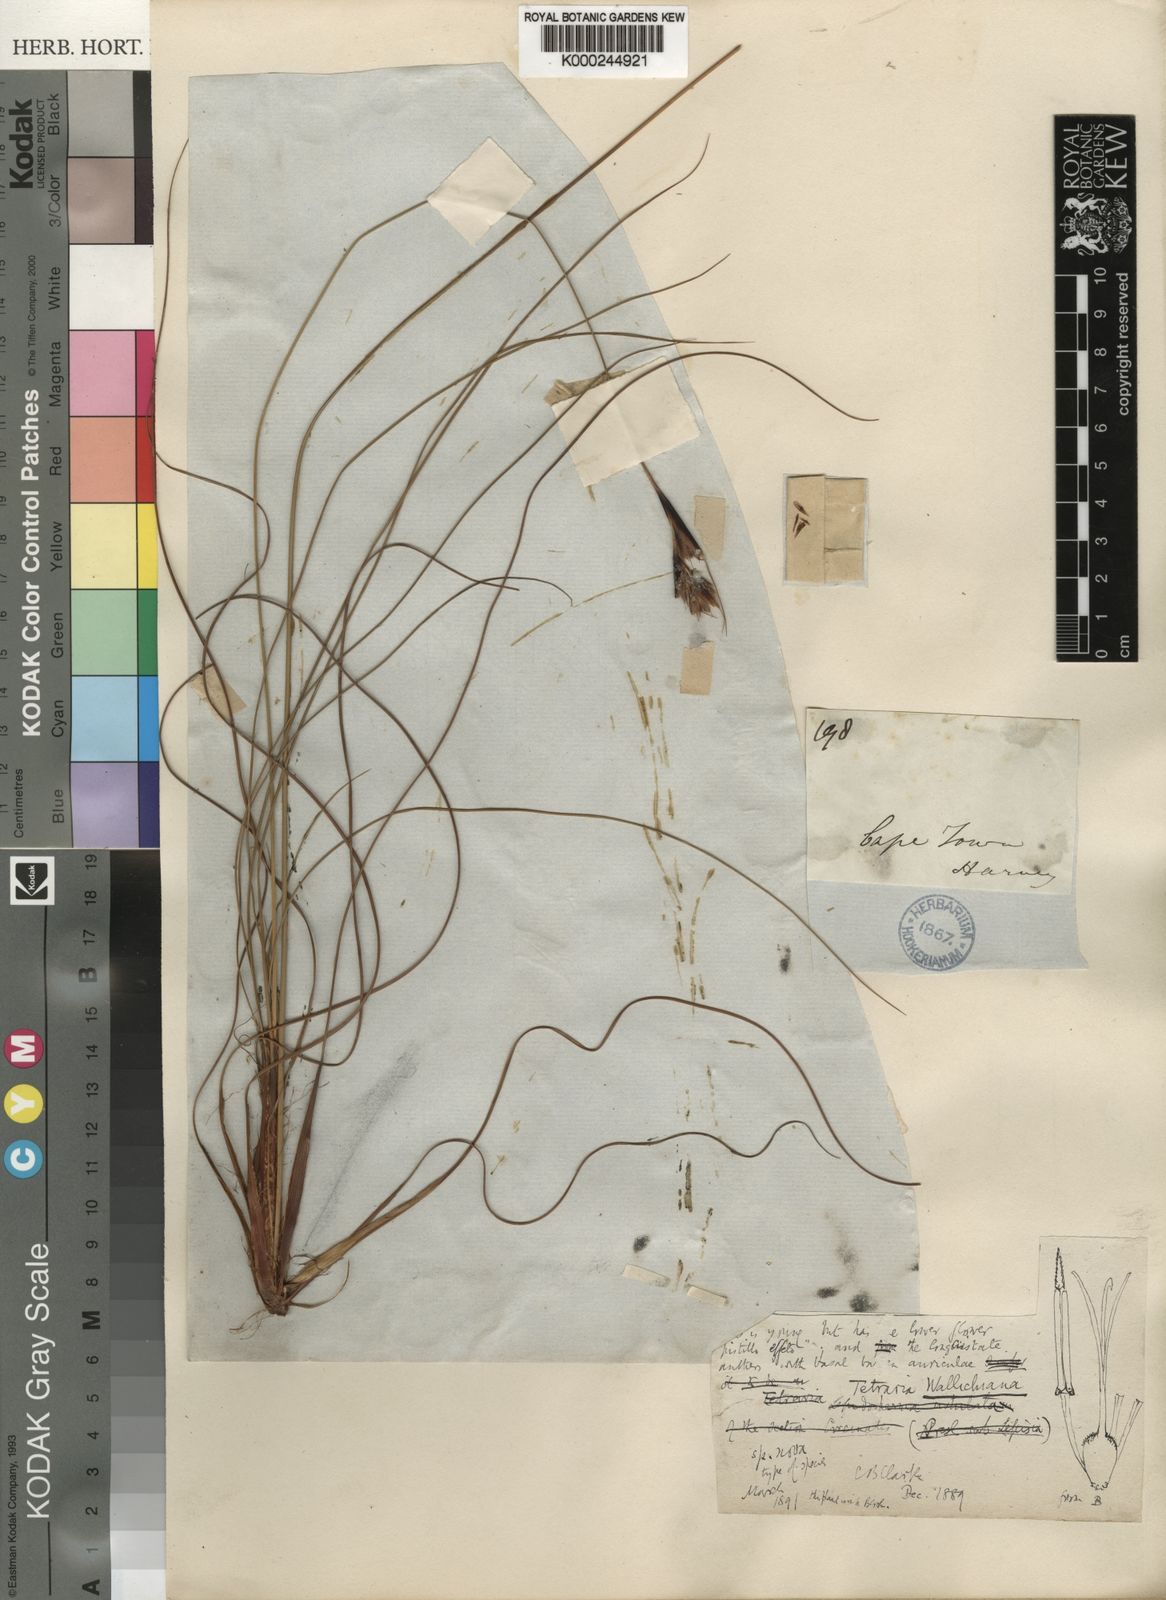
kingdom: Plantae
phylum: Tracheophyta
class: Liliopsida
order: Poales
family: Cyperaceae
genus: Tetraria
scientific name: Tetraria wallichiana
